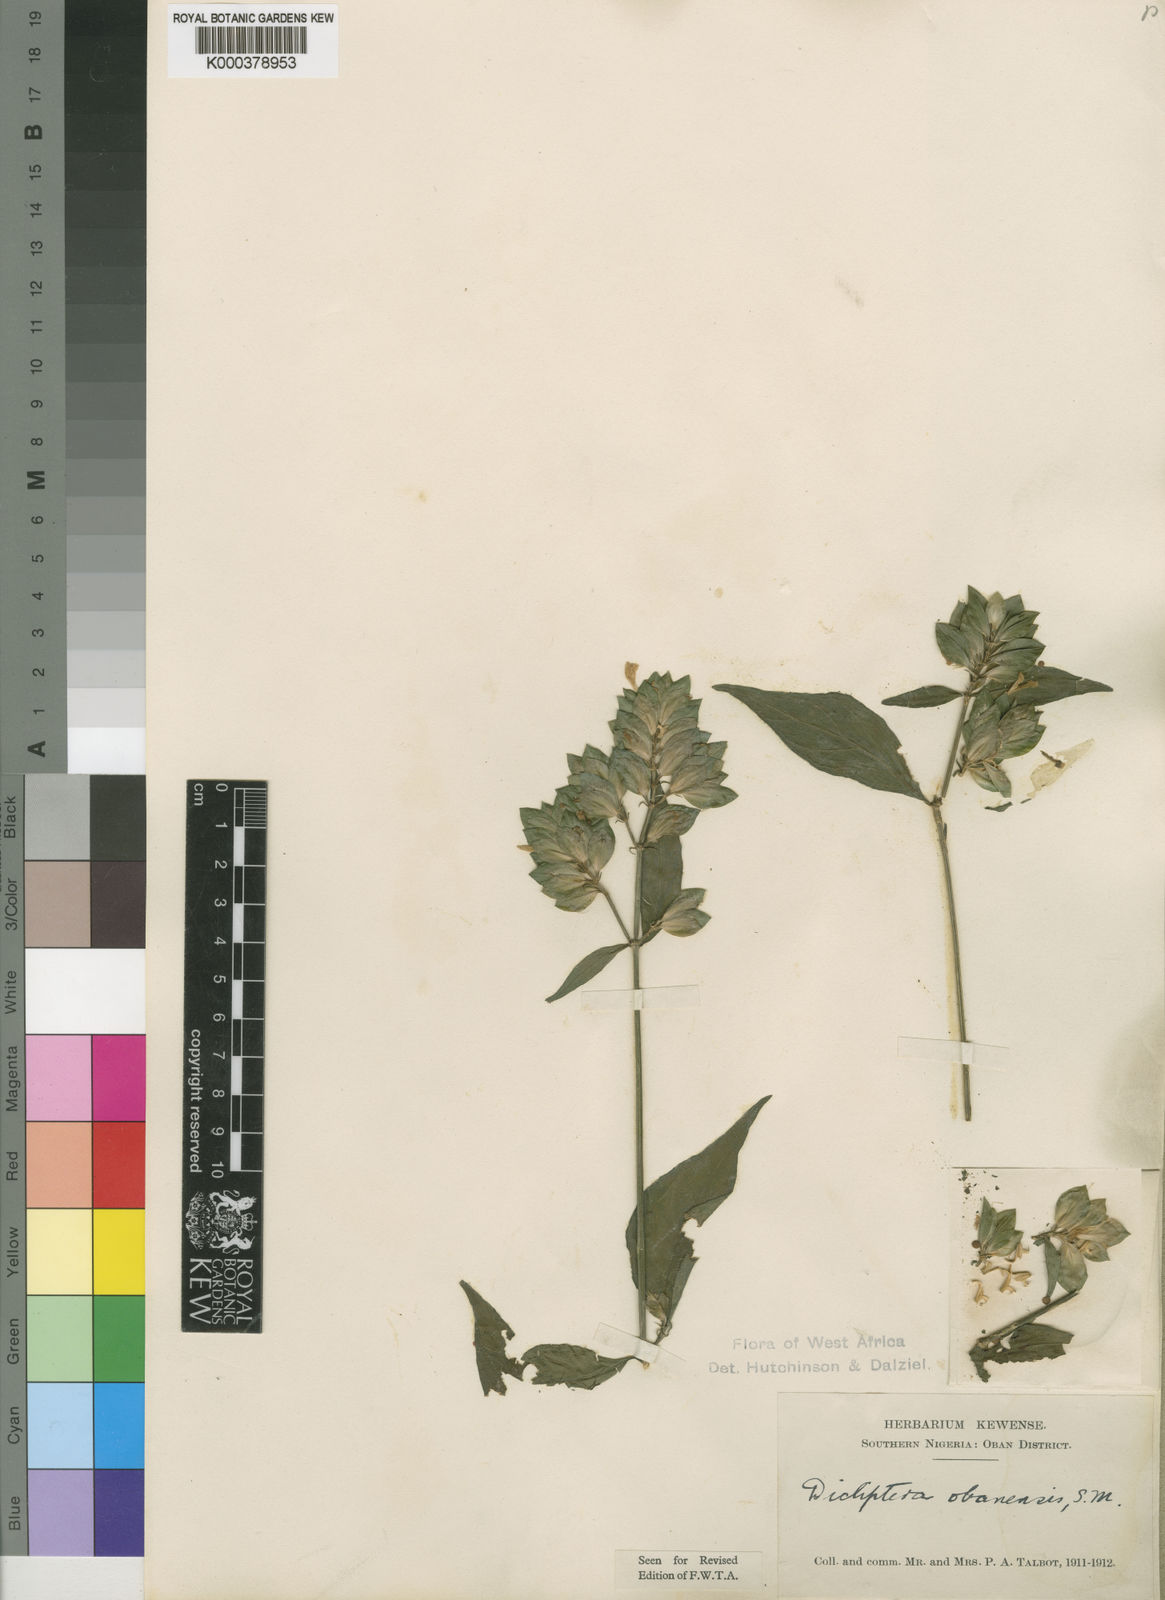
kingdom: Plantae
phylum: Tracheophyta
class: Magnoliopsida
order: Lamiales
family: Acanthaceae
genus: Dicliptera
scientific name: Dicliptera elliotii
